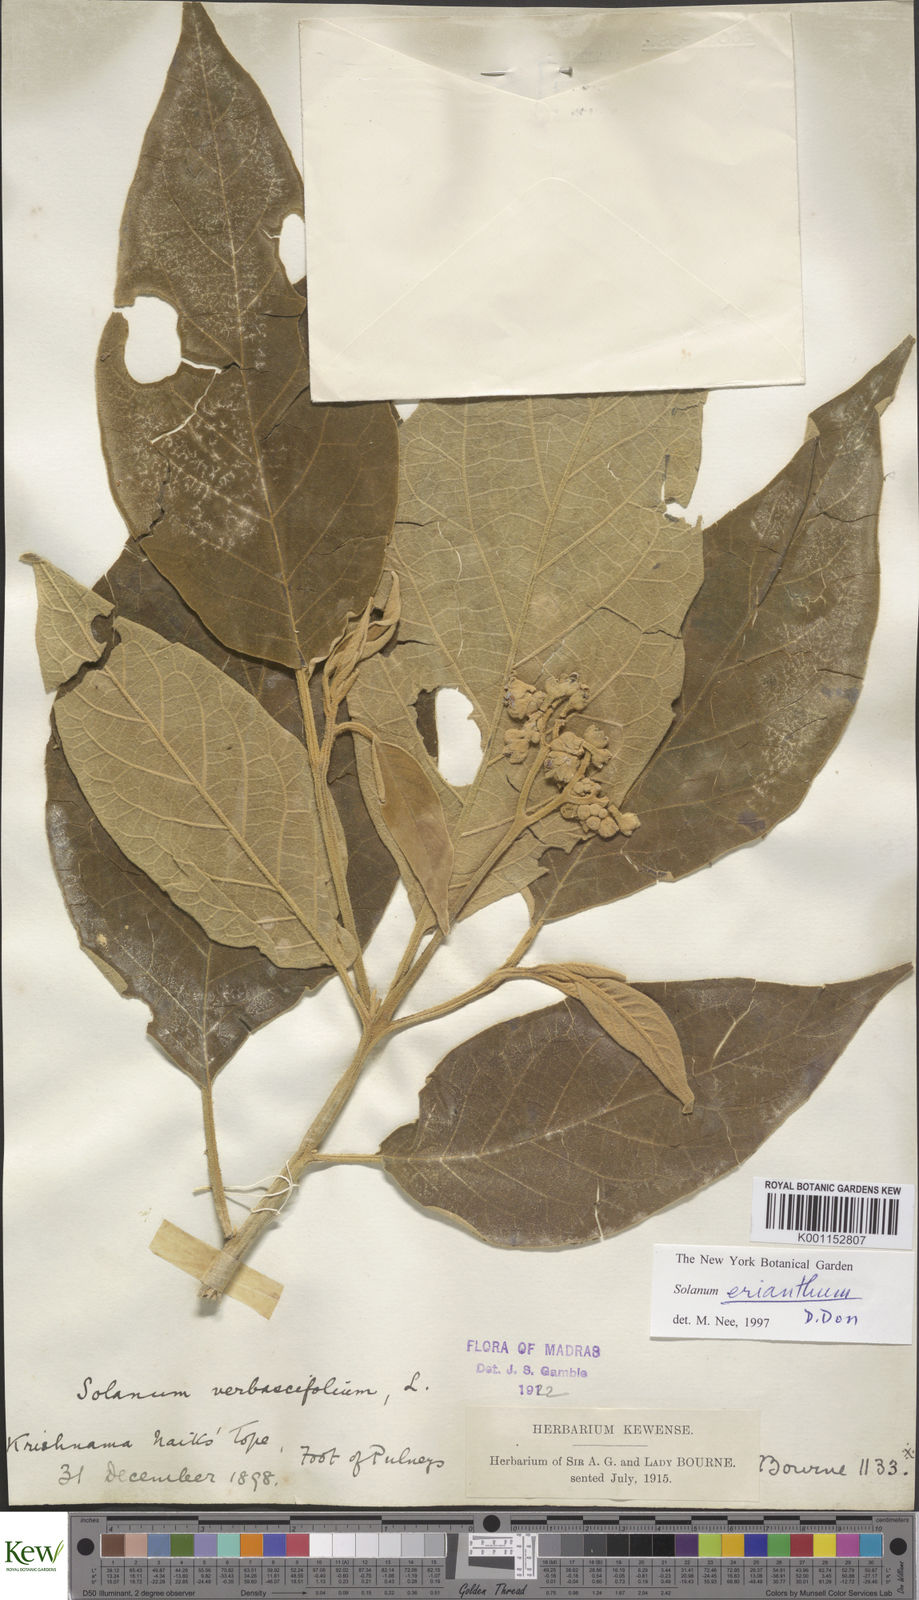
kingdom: Plantae
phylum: Tracheophyta
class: Magnoliopsida
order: Solanales
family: Solanaceae
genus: Solanum
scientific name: Solanum erianthum
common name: Tobacco-tree
